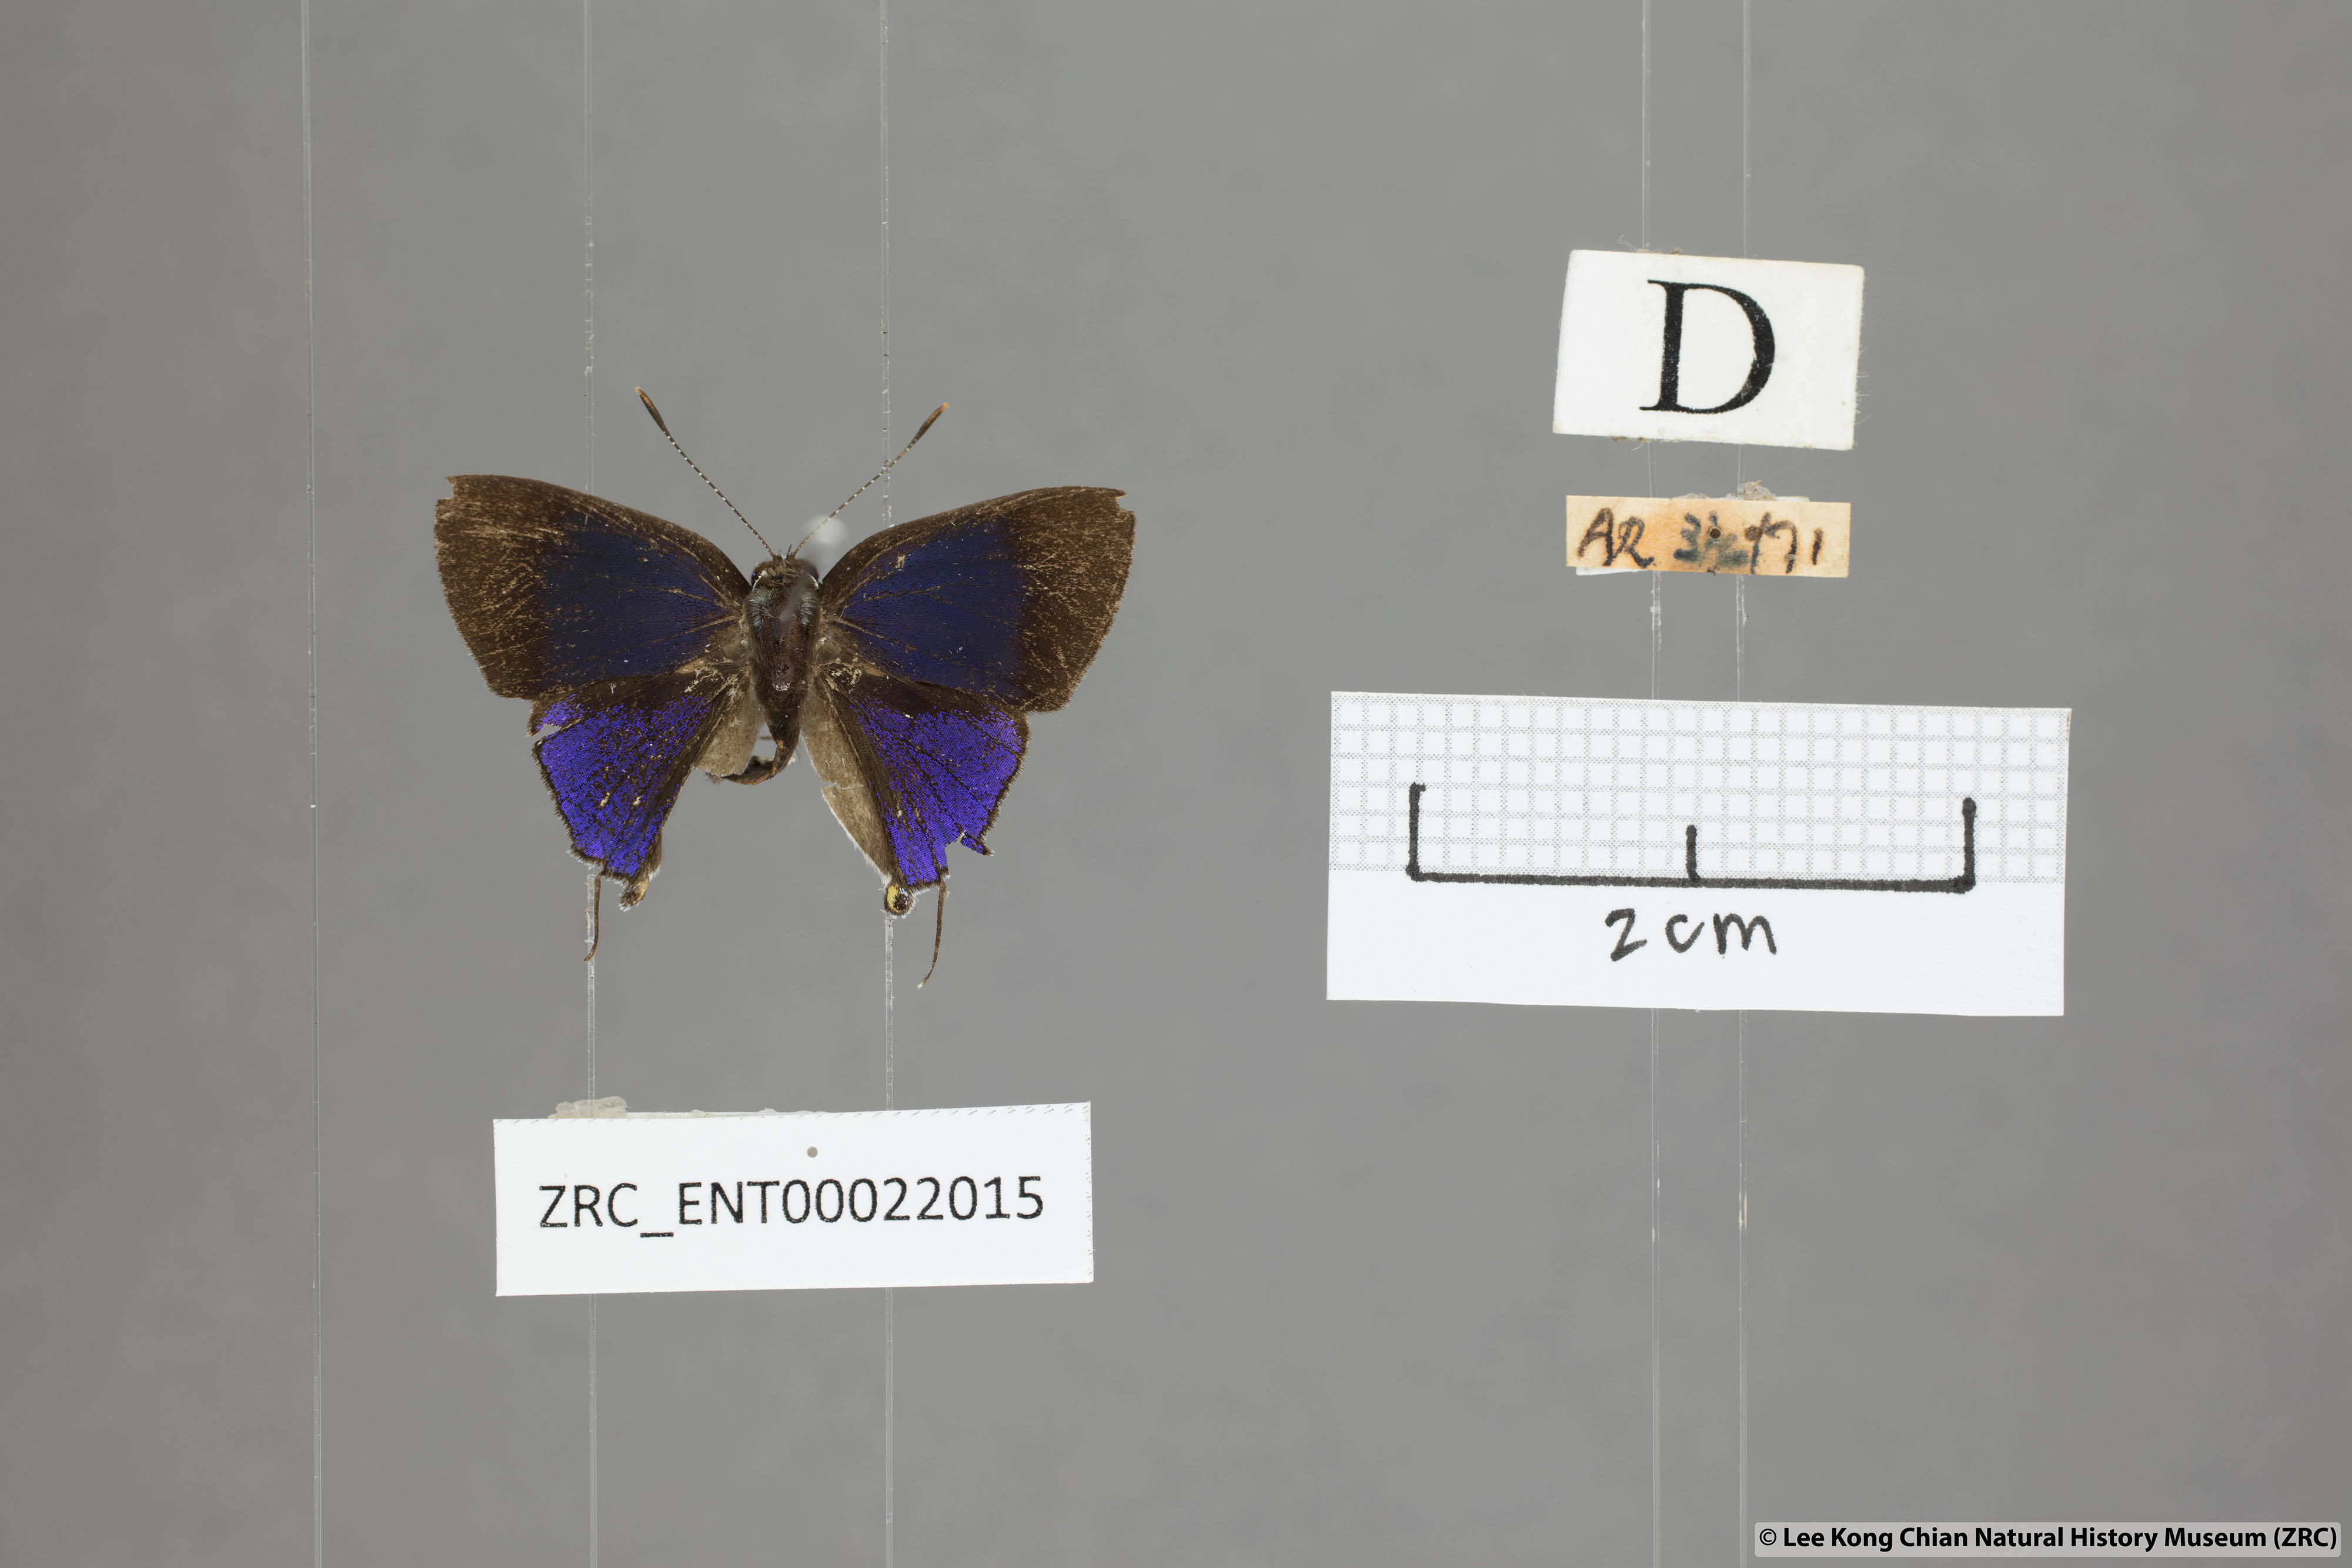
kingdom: Animalia
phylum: Arthropoda
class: Insecta
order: Lepidoptera
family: Lycaenidae
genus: Sinthusa
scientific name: Sinthusa nasaka
